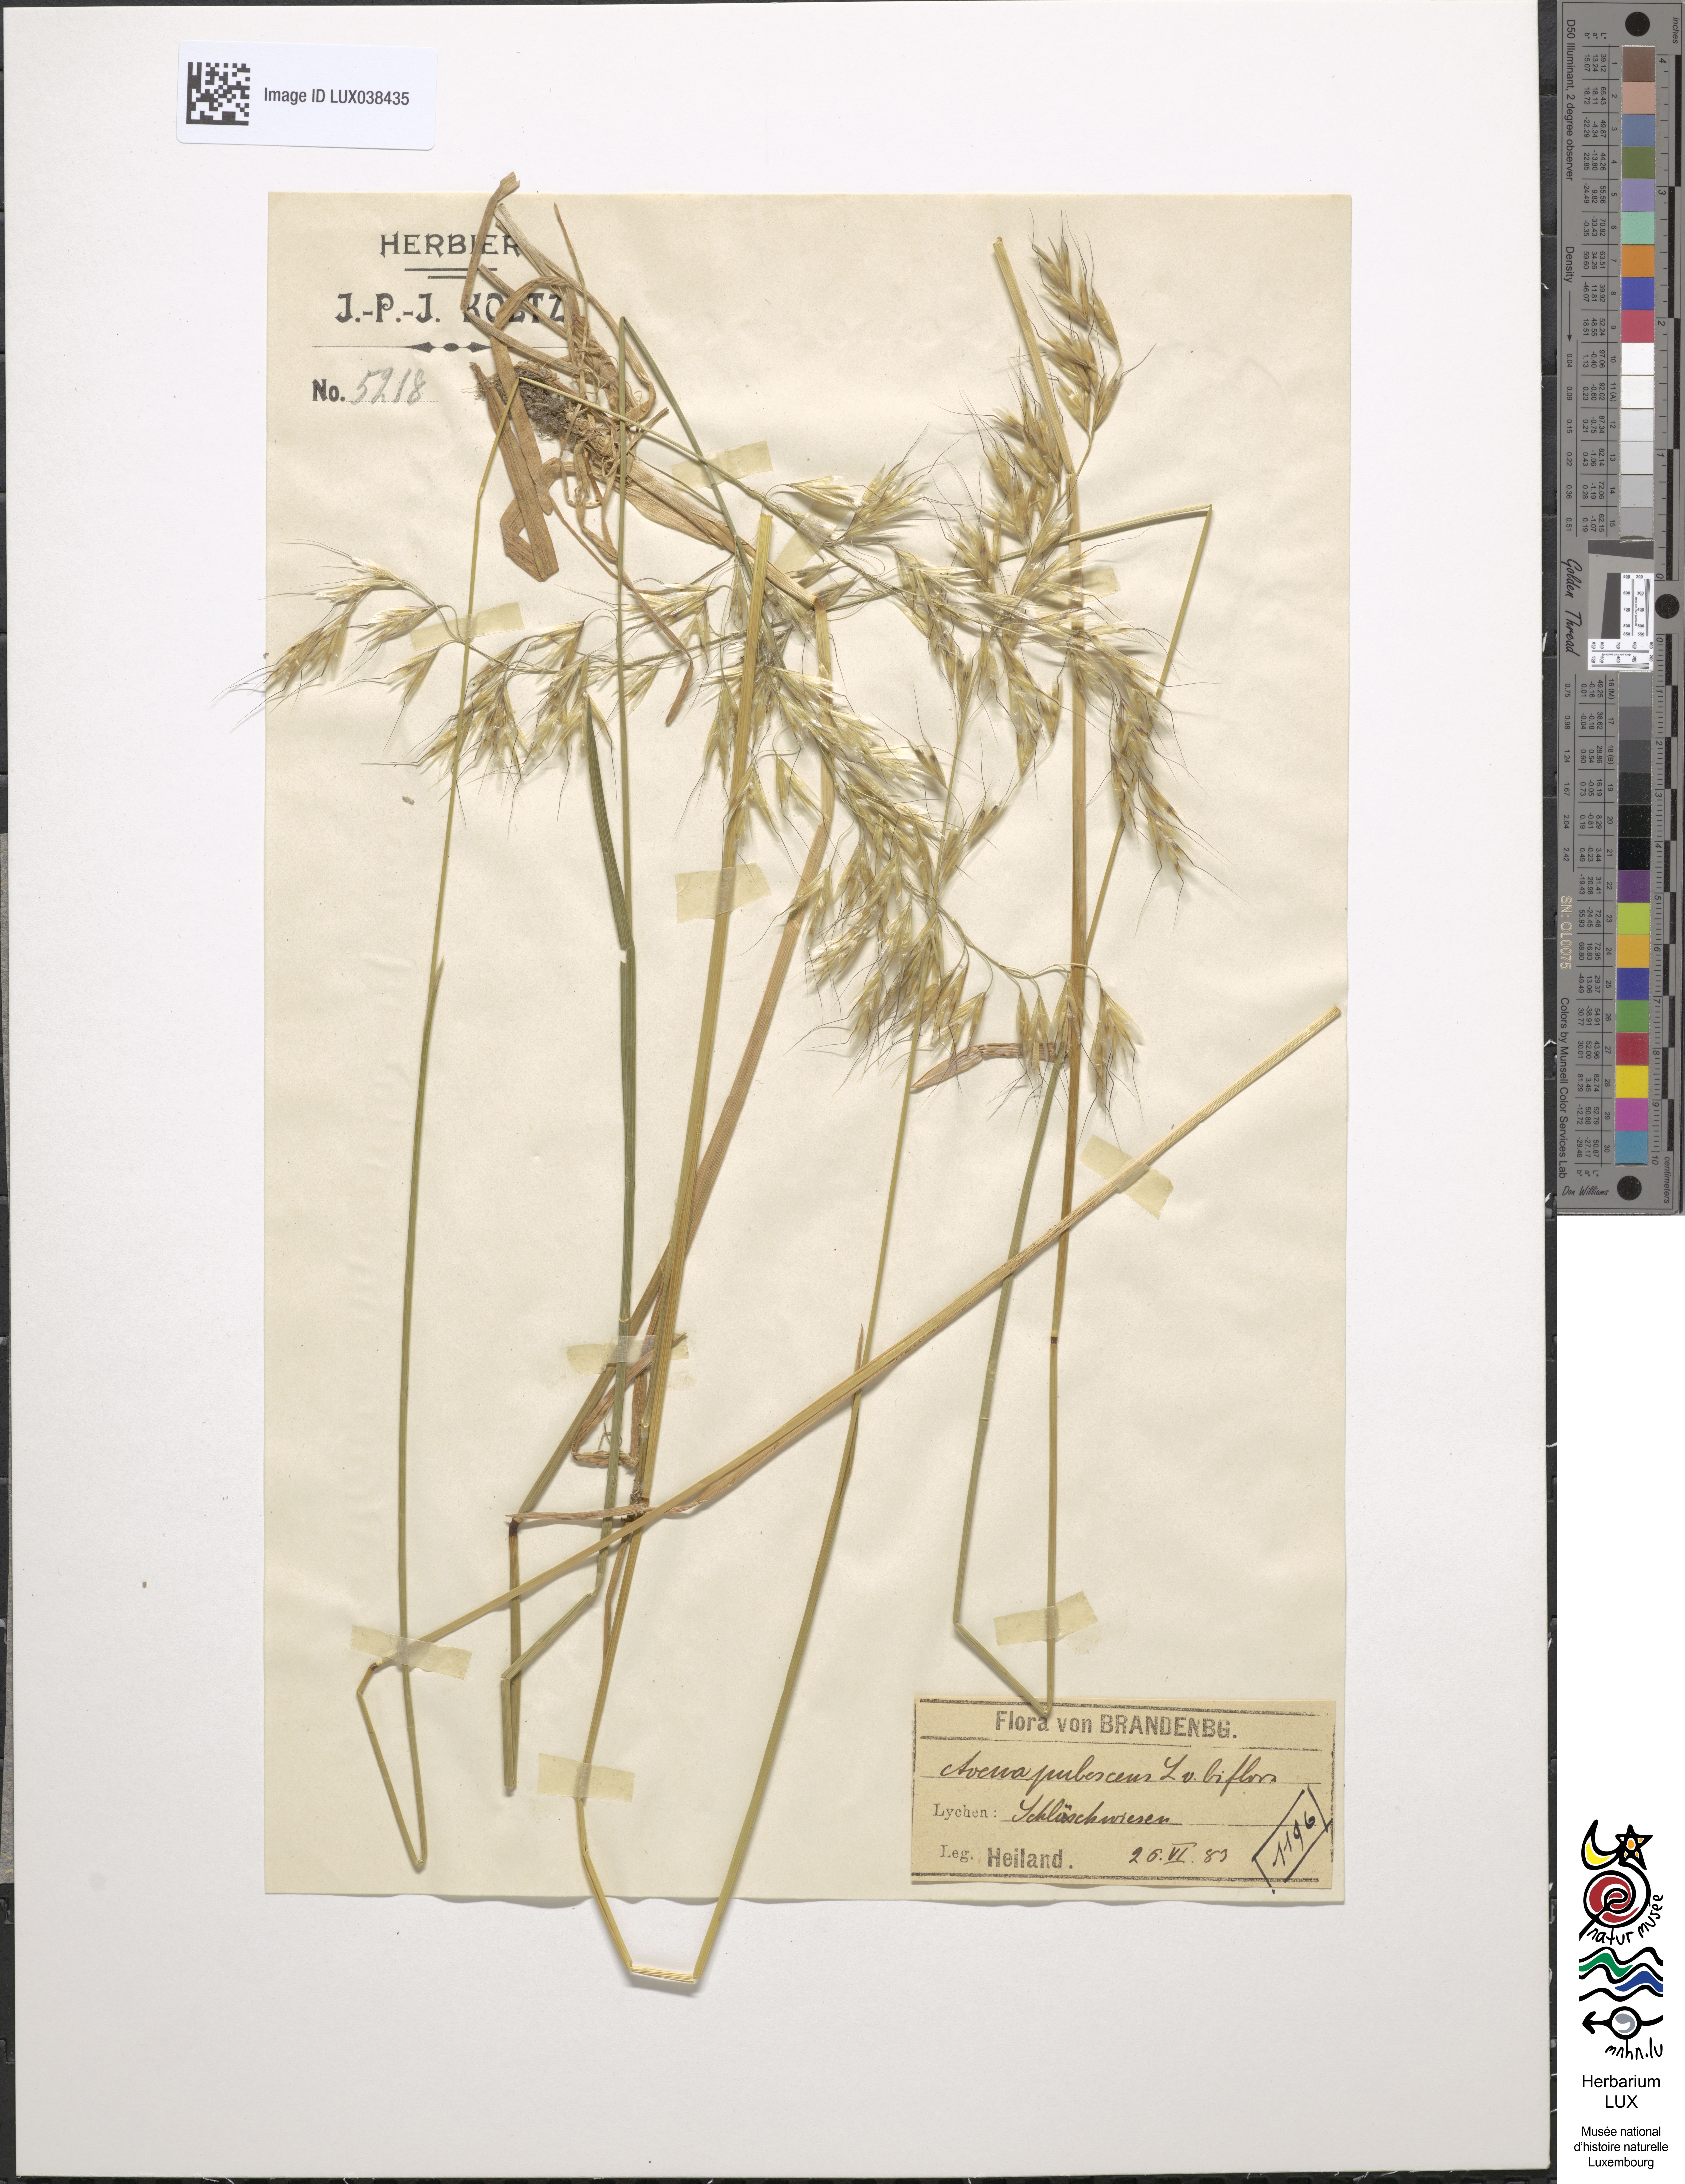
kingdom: Plantae
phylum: Tracheophyta
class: Liliopsida
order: Poales
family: Poaceae
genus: Avenula
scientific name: Avenula pubescens
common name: Downy alpine oatgrass
